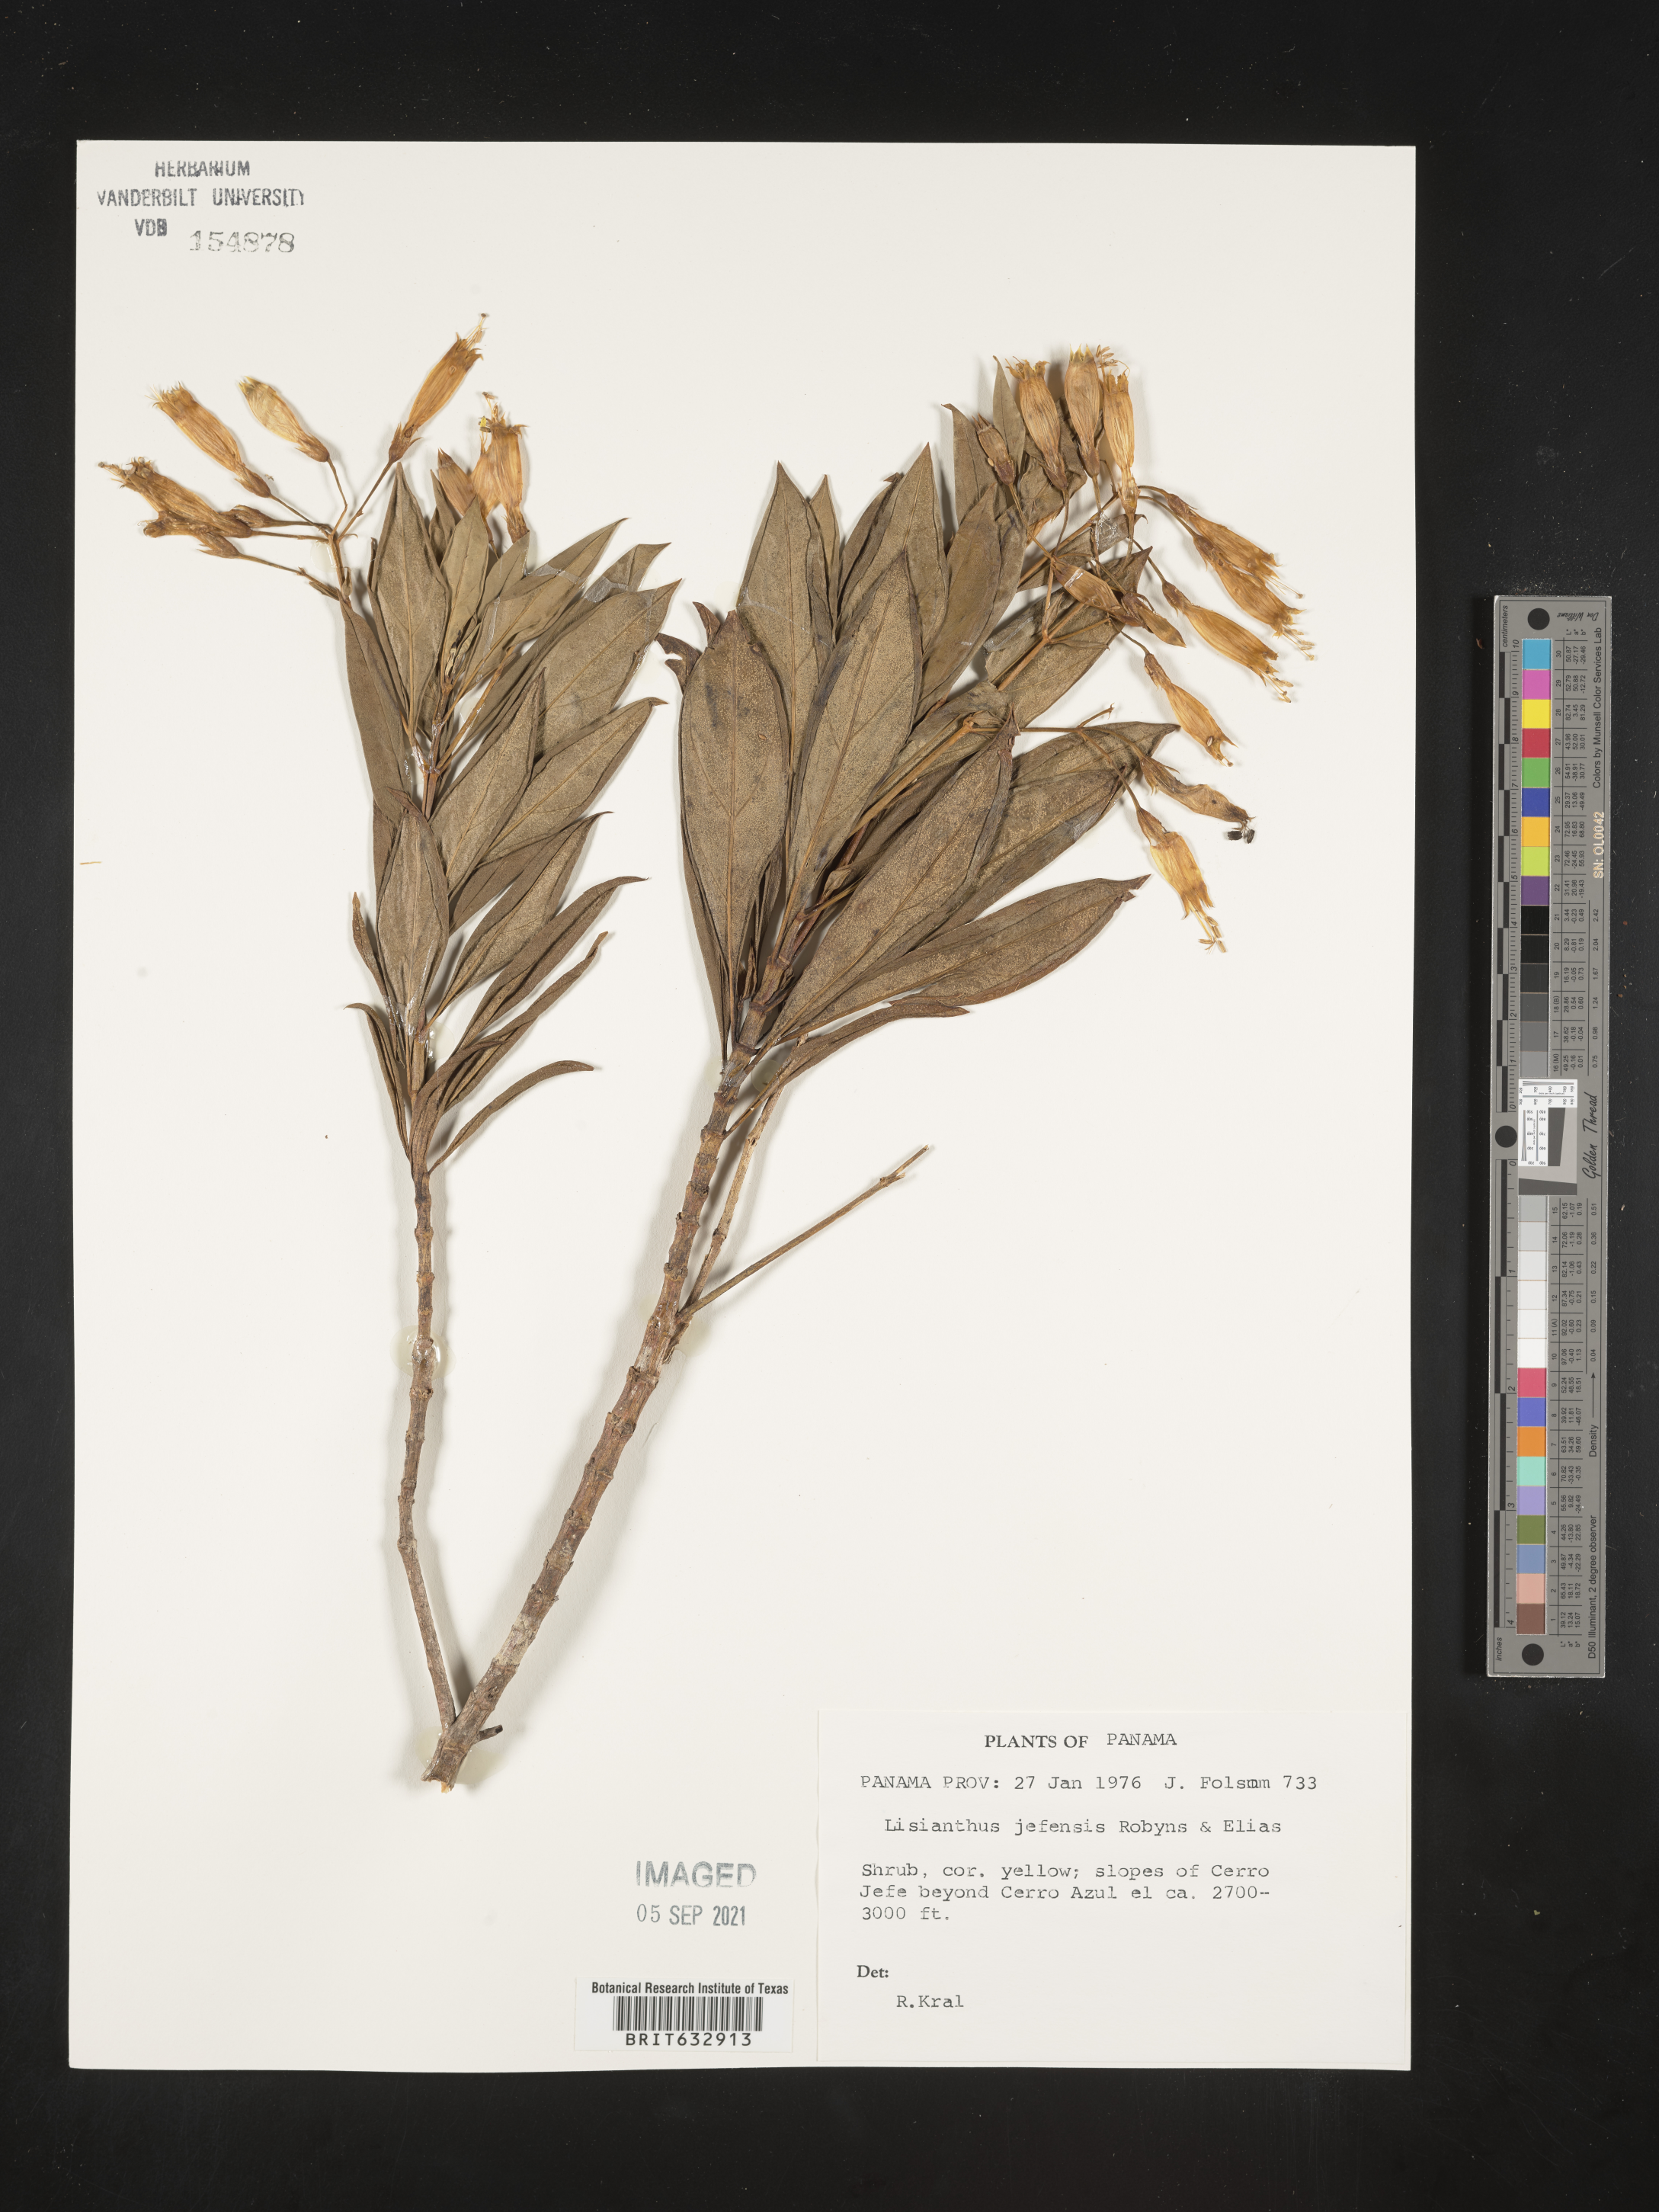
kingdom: Plantae
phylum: Tracheophyta
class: Magnoliopsida
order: Gentianales
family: Gentianaceae
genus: Lisianthus
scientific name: Lisianthus
